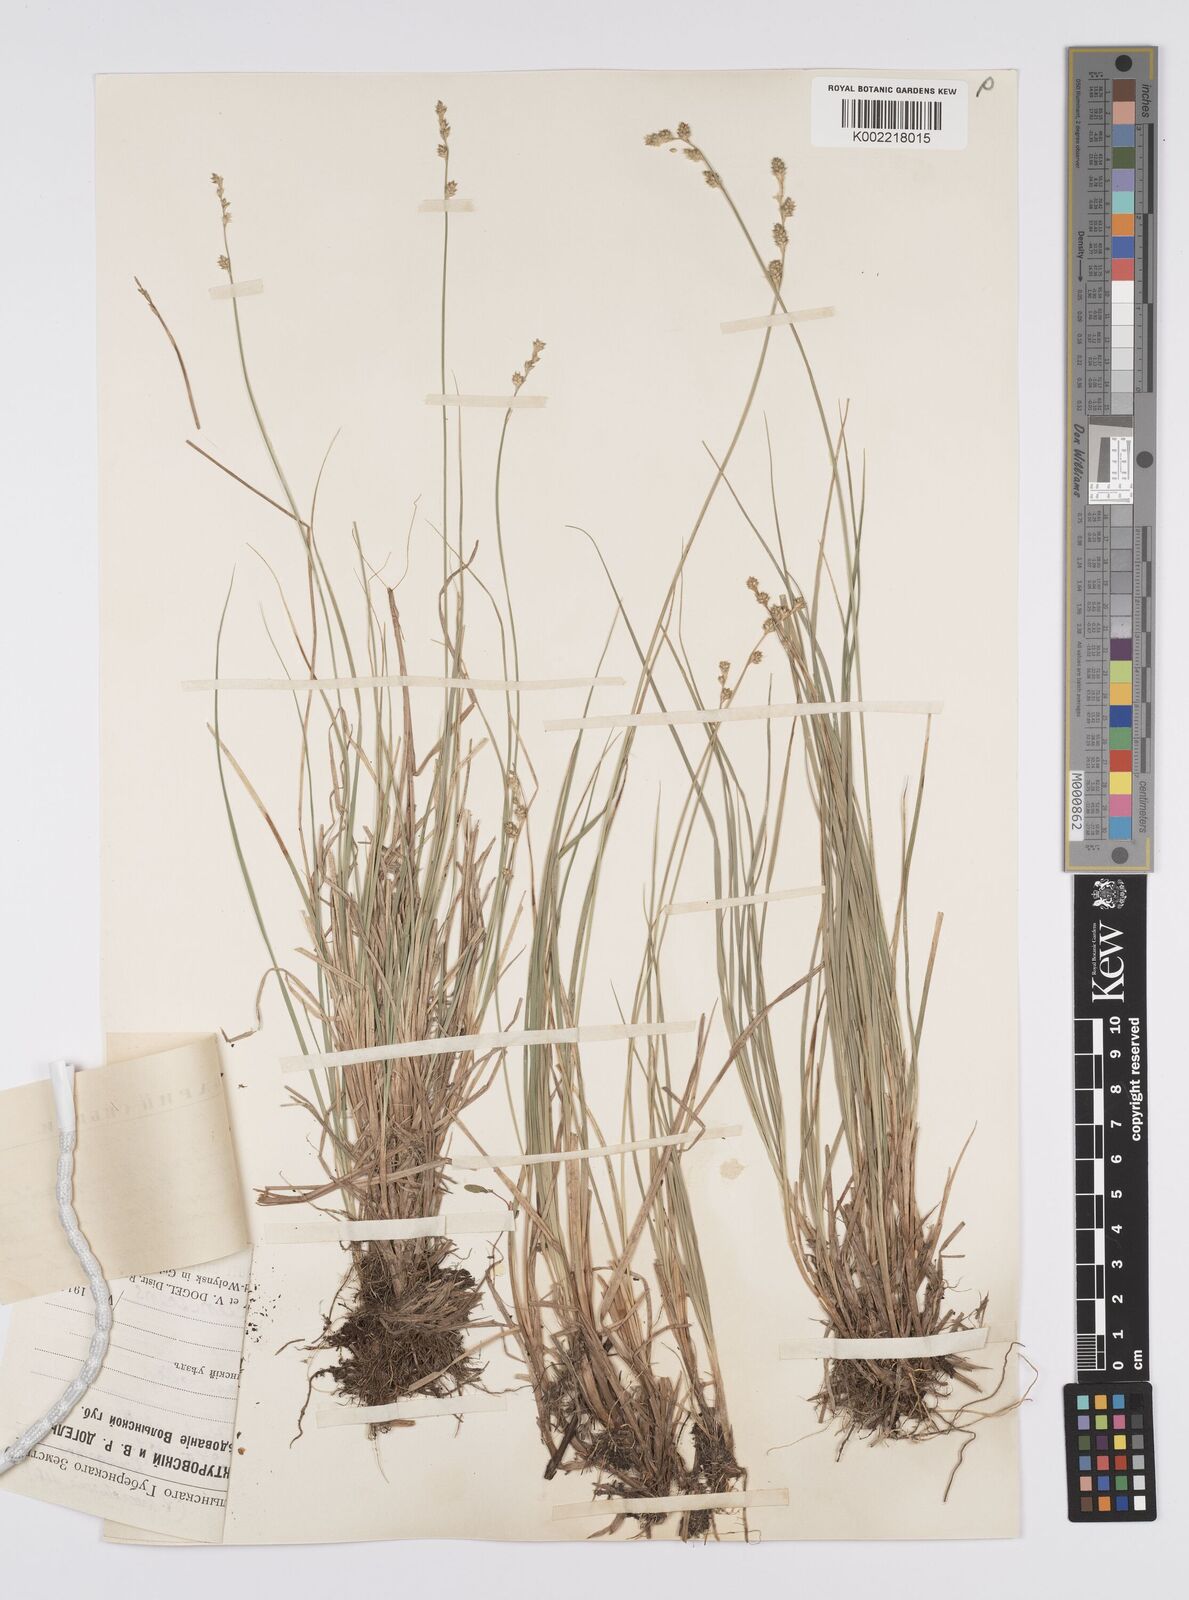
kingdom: Plantae
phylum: Tracheophyta
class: Liliopsida
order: Poales
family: Cyperaceae
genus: Carex
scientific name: Carex canescens
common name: White sedge
